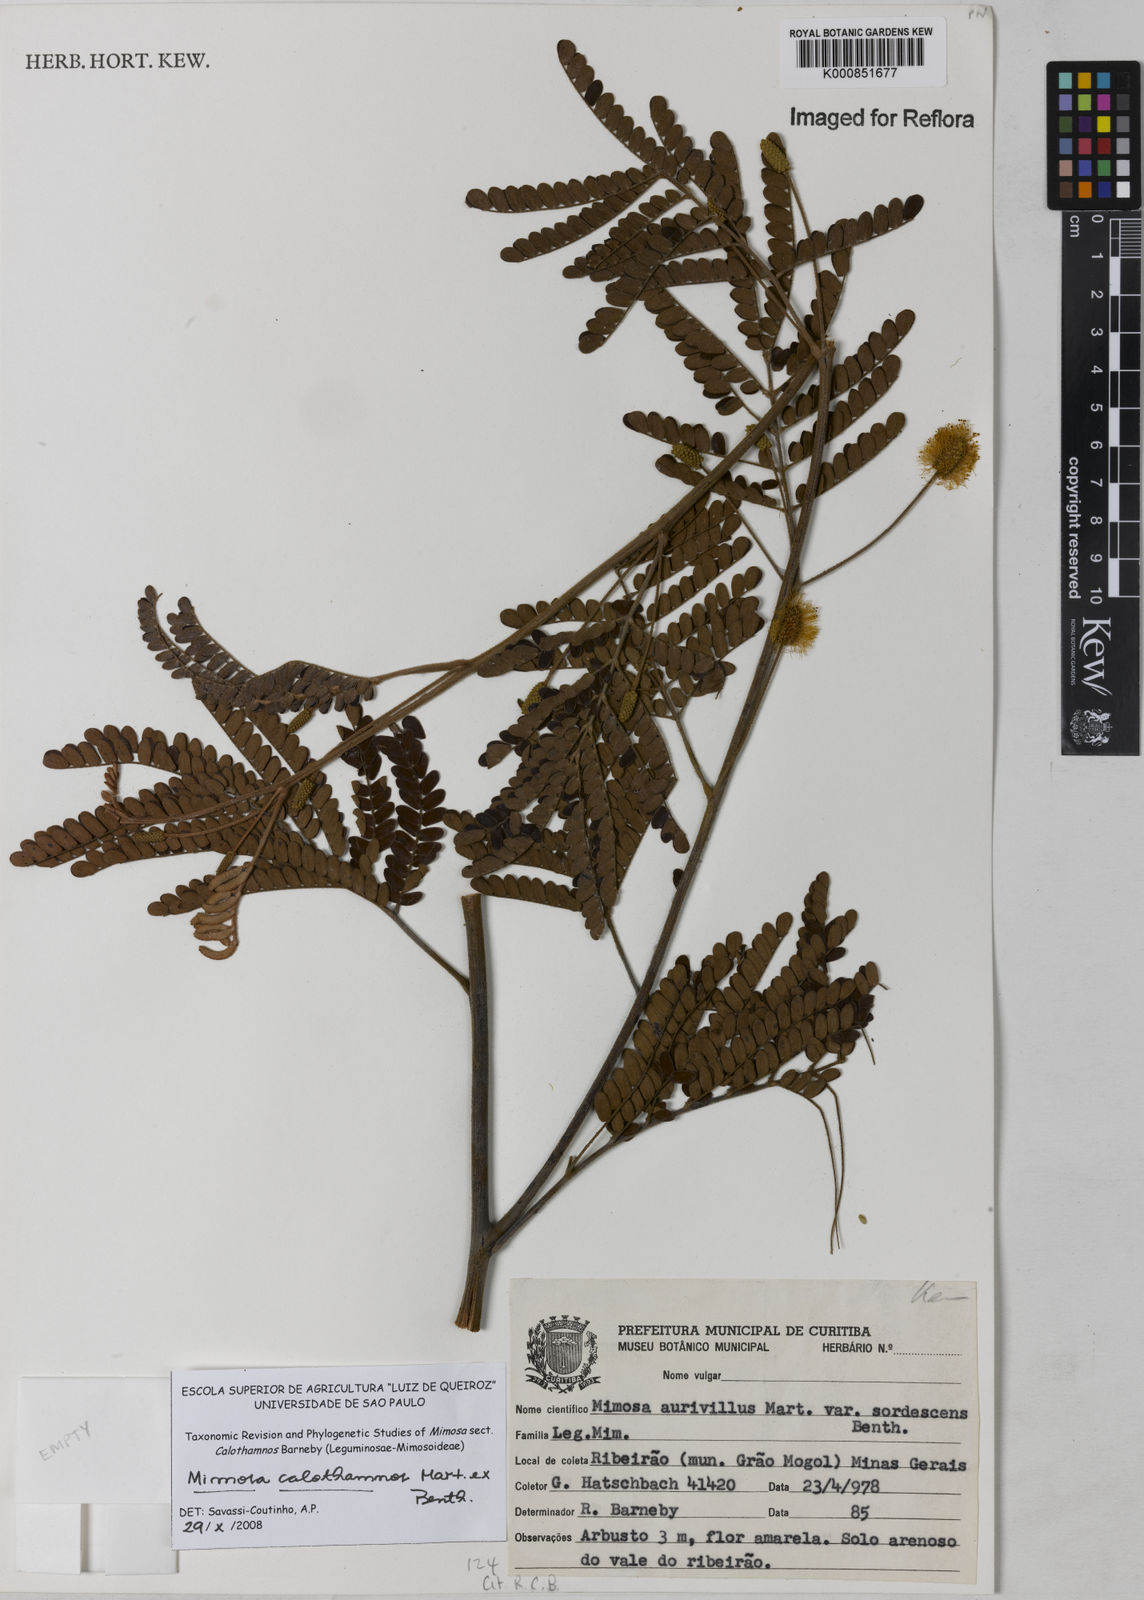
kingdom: Plantae
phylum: Tracheophyta
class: Magnoliopsida
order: Fabales
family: Fabaceae
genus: Mimosa
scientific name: Mimosa aurivillus
